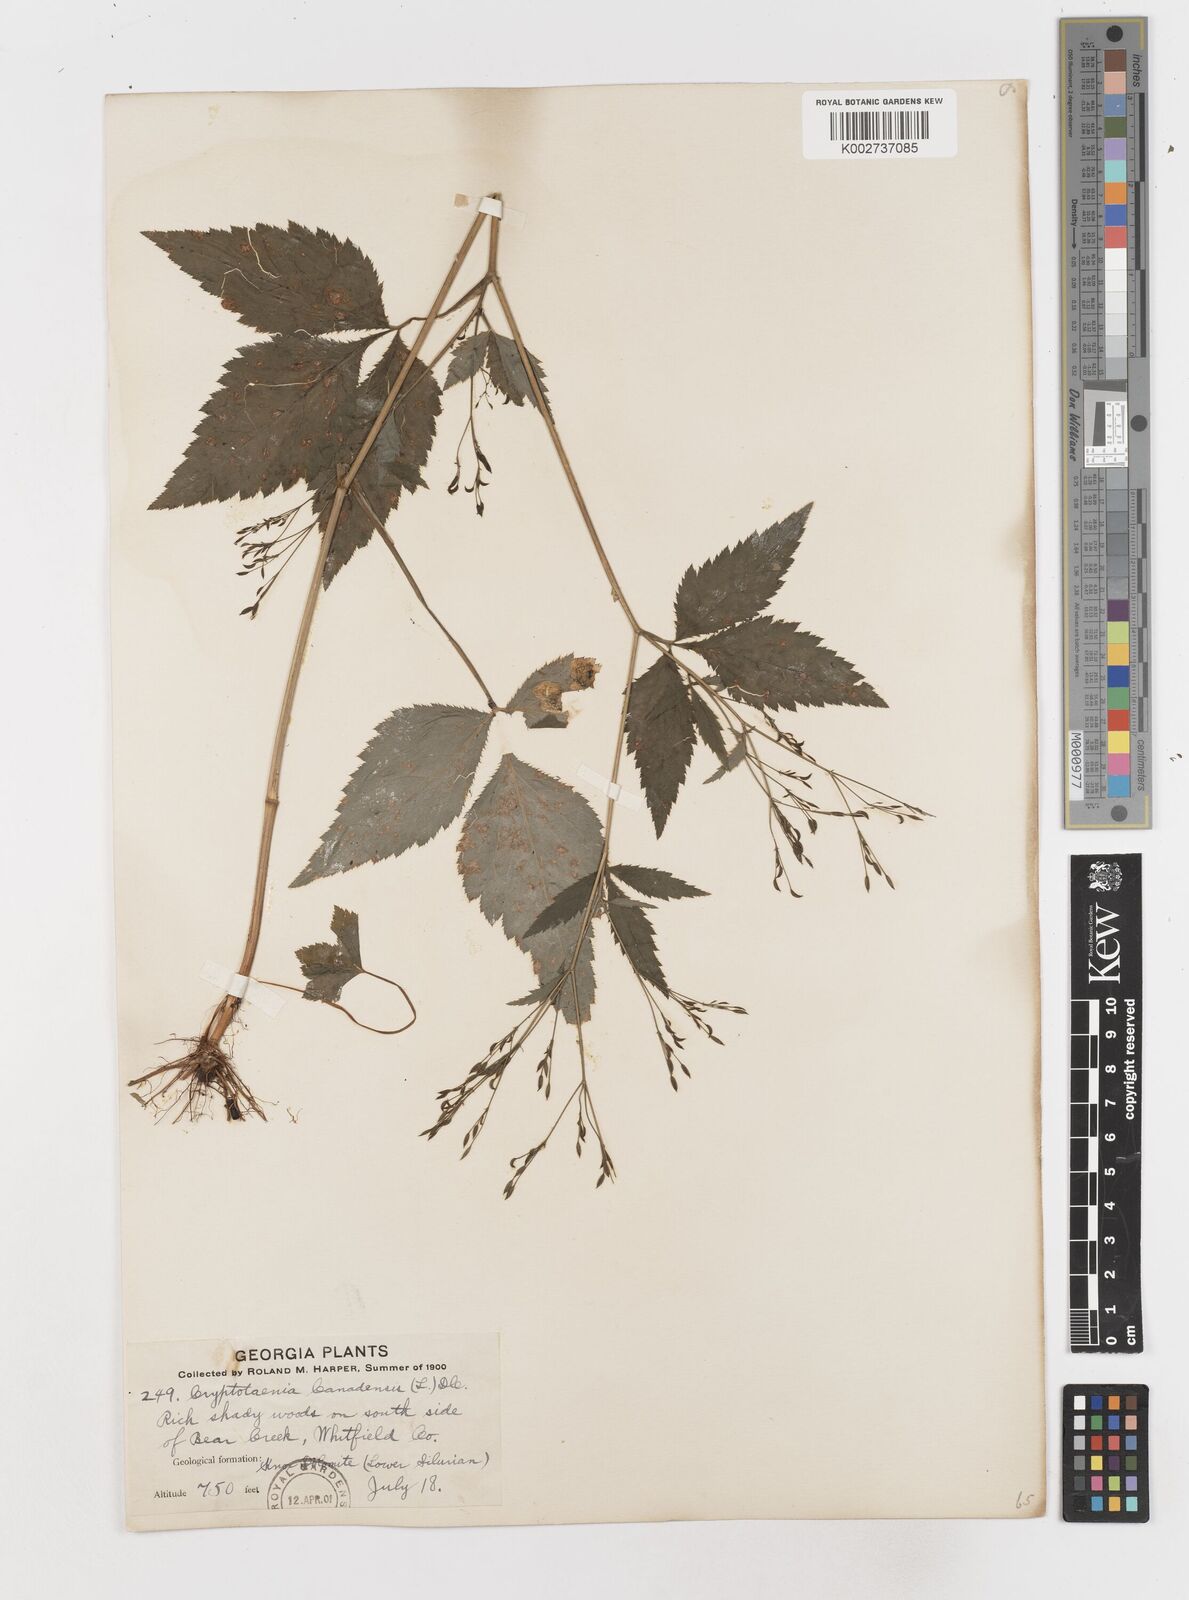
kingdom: Plantae
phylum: Tracheophyta
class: Magnoliopsida
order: Apiales
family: Apiaceae
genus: Cryptotaenia
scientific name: Cryptotaenia canadensis
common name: Honewort
